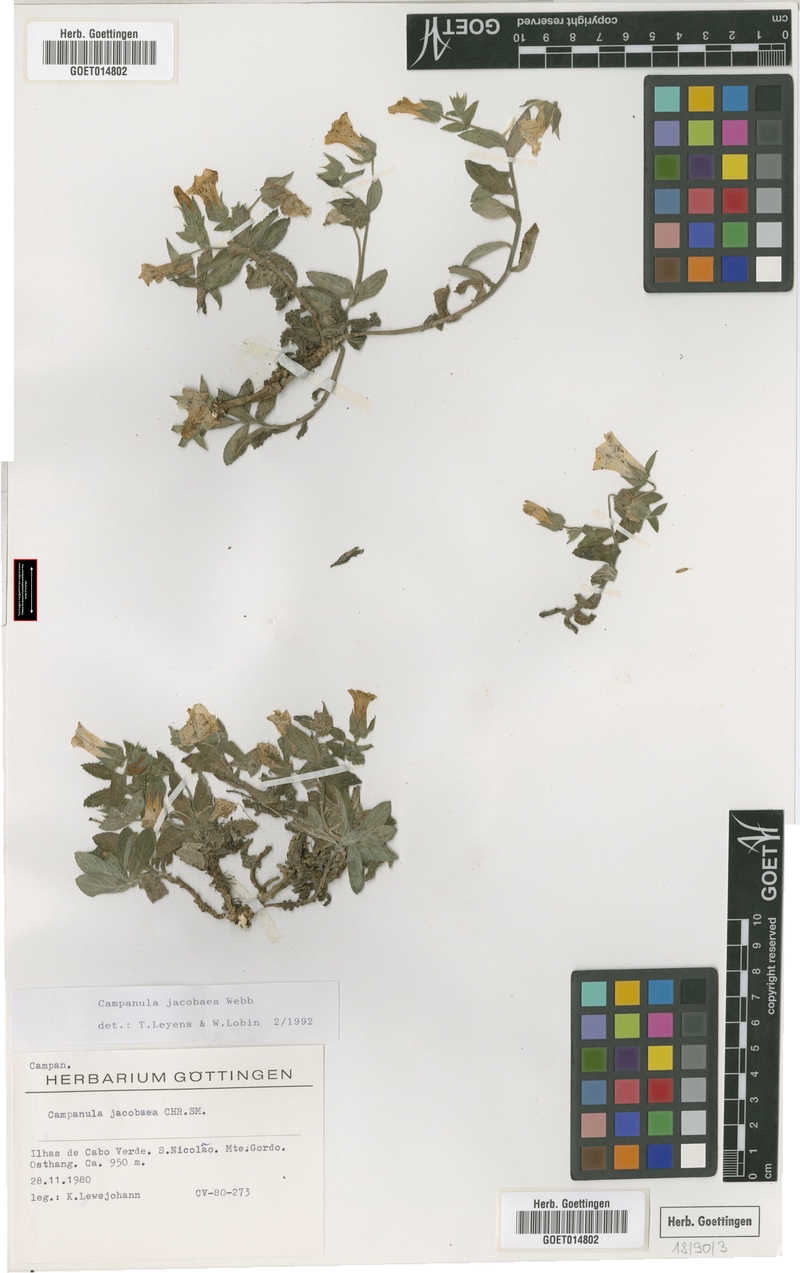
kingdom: Plantae
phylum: Tracheophyta
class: Magnoliopsida
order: Asterales
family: Campanulaceae
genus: Campanula
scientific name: Campanula jacobaea
